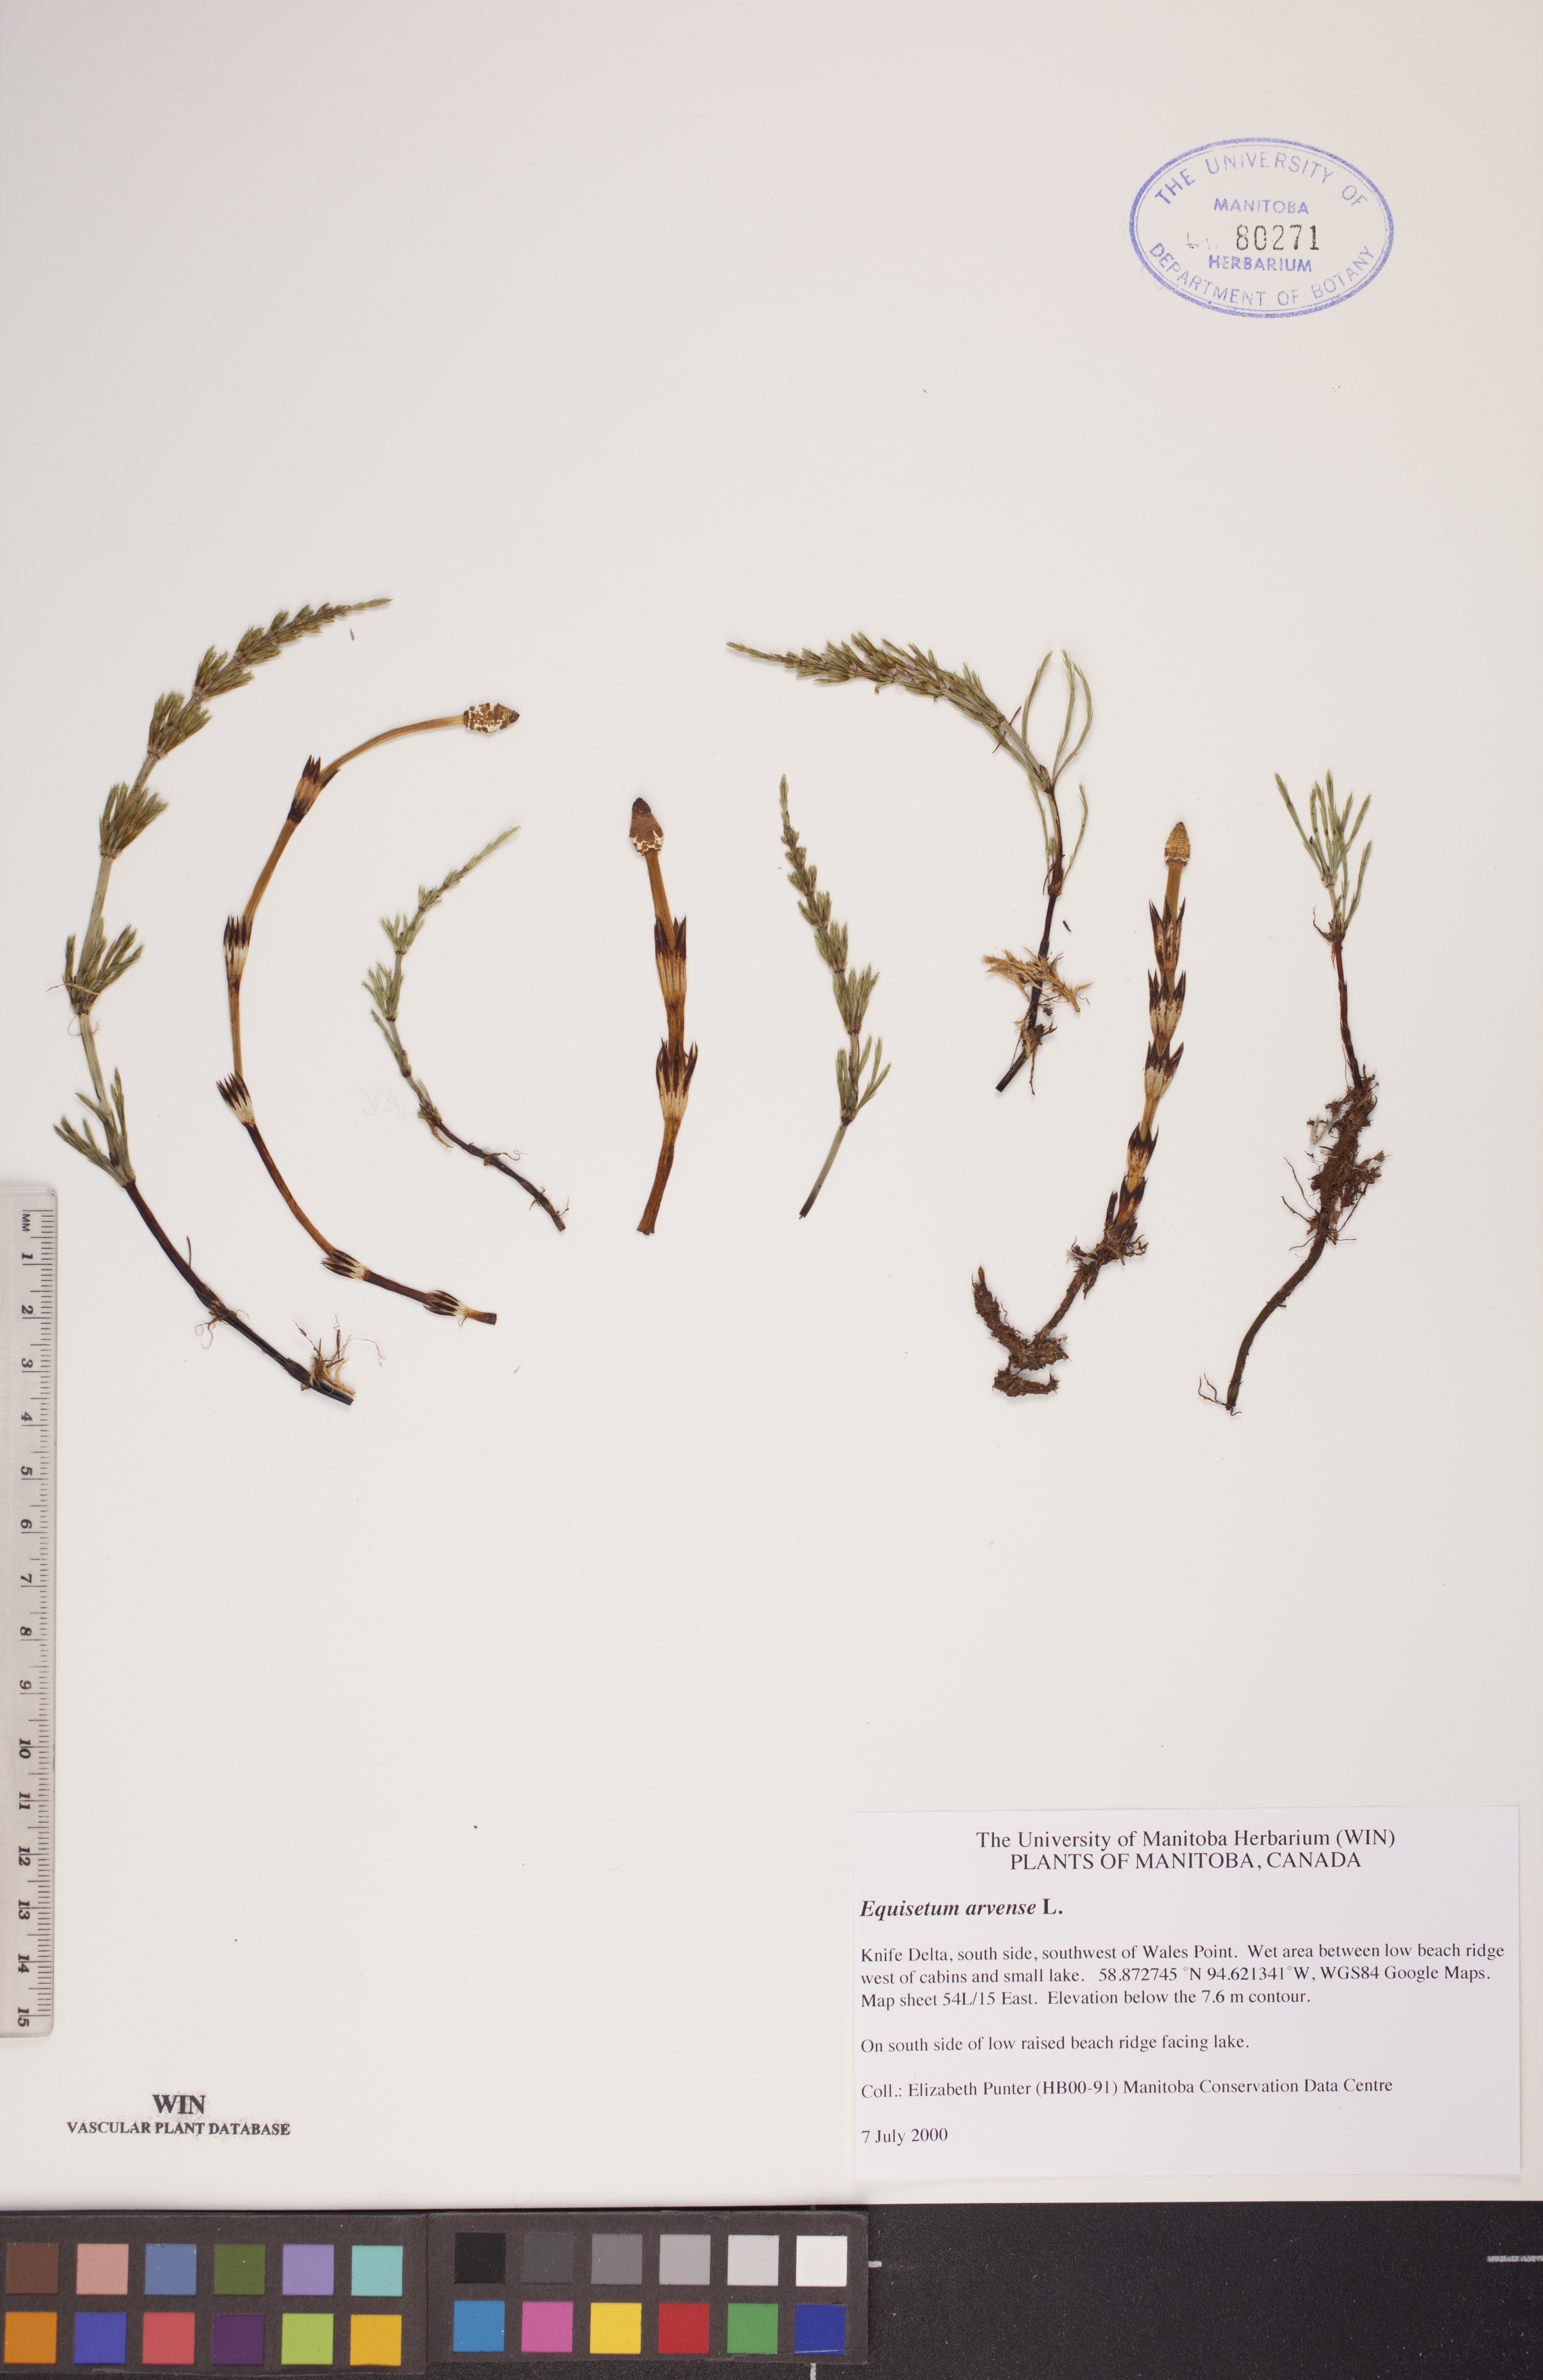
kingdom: Plantae
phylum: Tracheophyta
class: Polypodiopsida
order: Equisetales
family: Equisetaceae
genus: Equisetum
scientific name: Equisetum arvense
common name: Field horsetail
